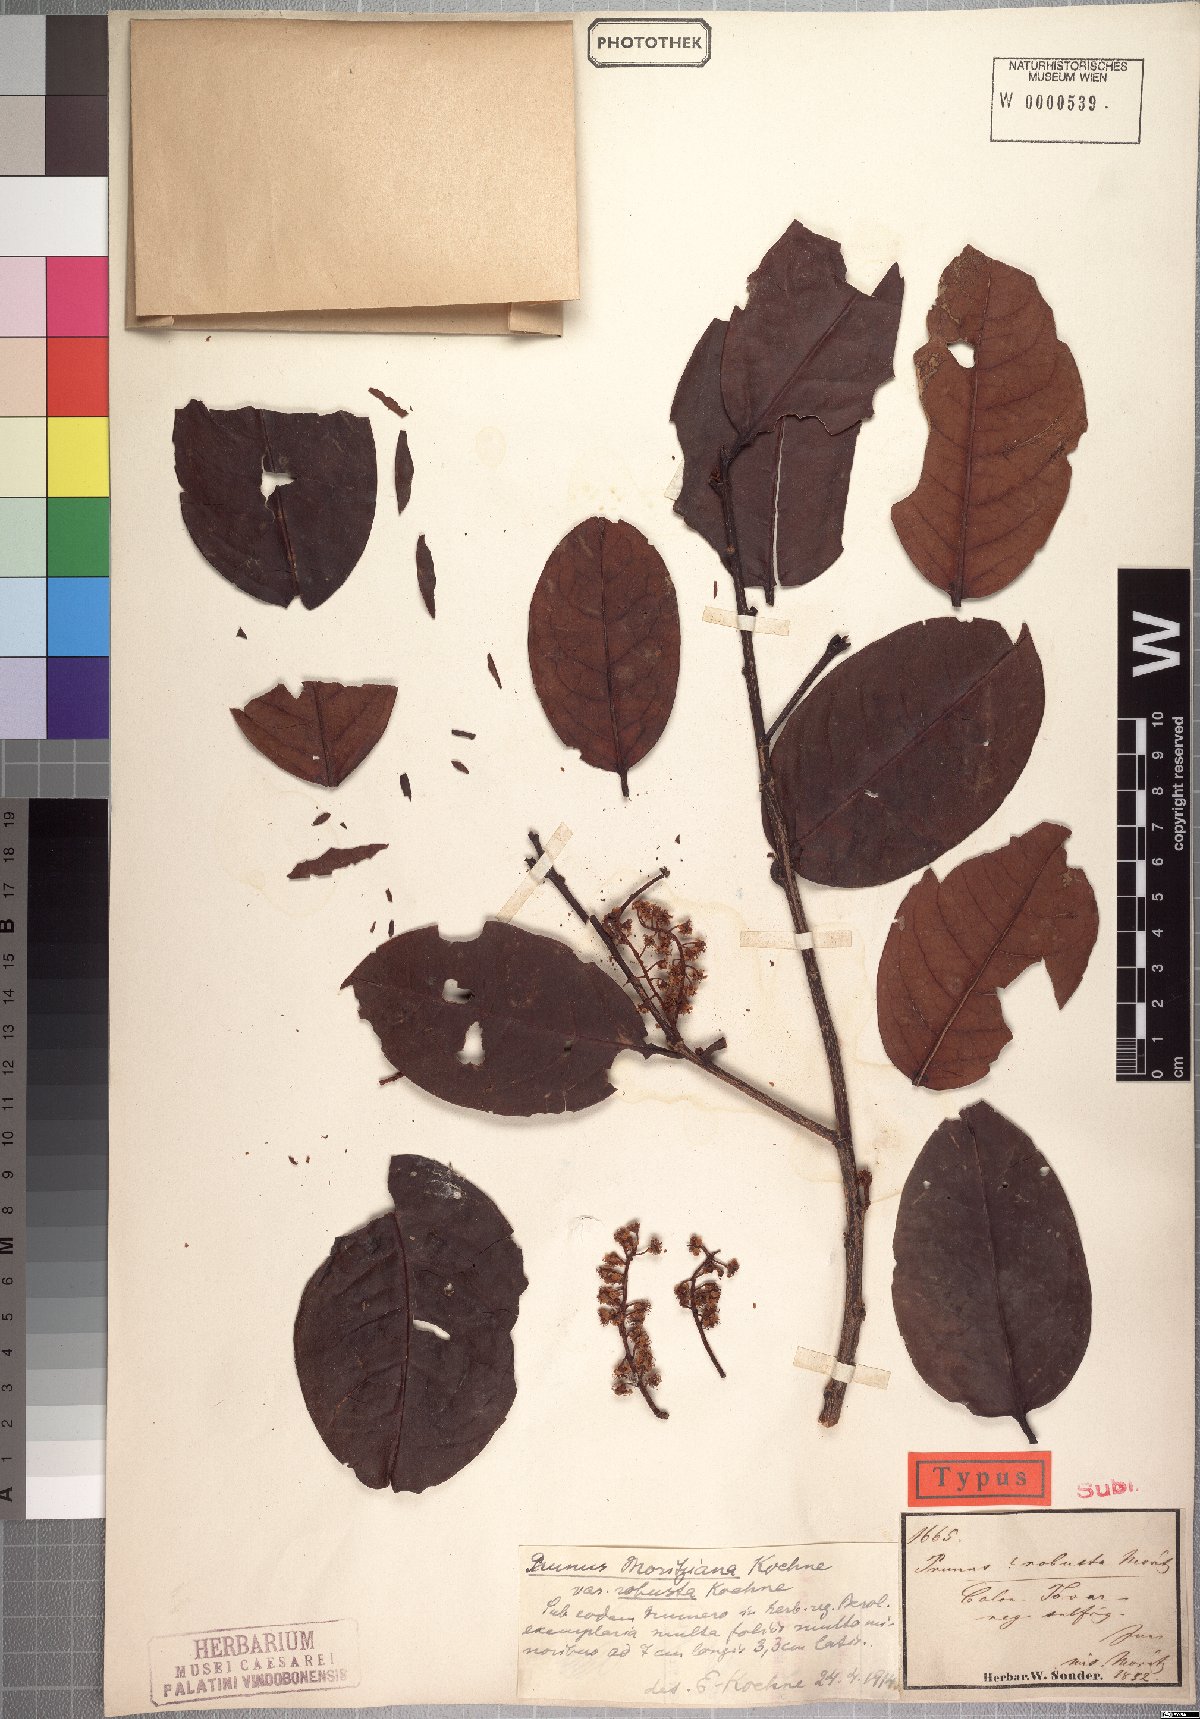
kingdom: Plantae
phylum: Tracheophyta
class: Magnoliopsida
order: Rosales
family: Rosaceae
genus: Prunus
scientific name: Prunus moritziana
